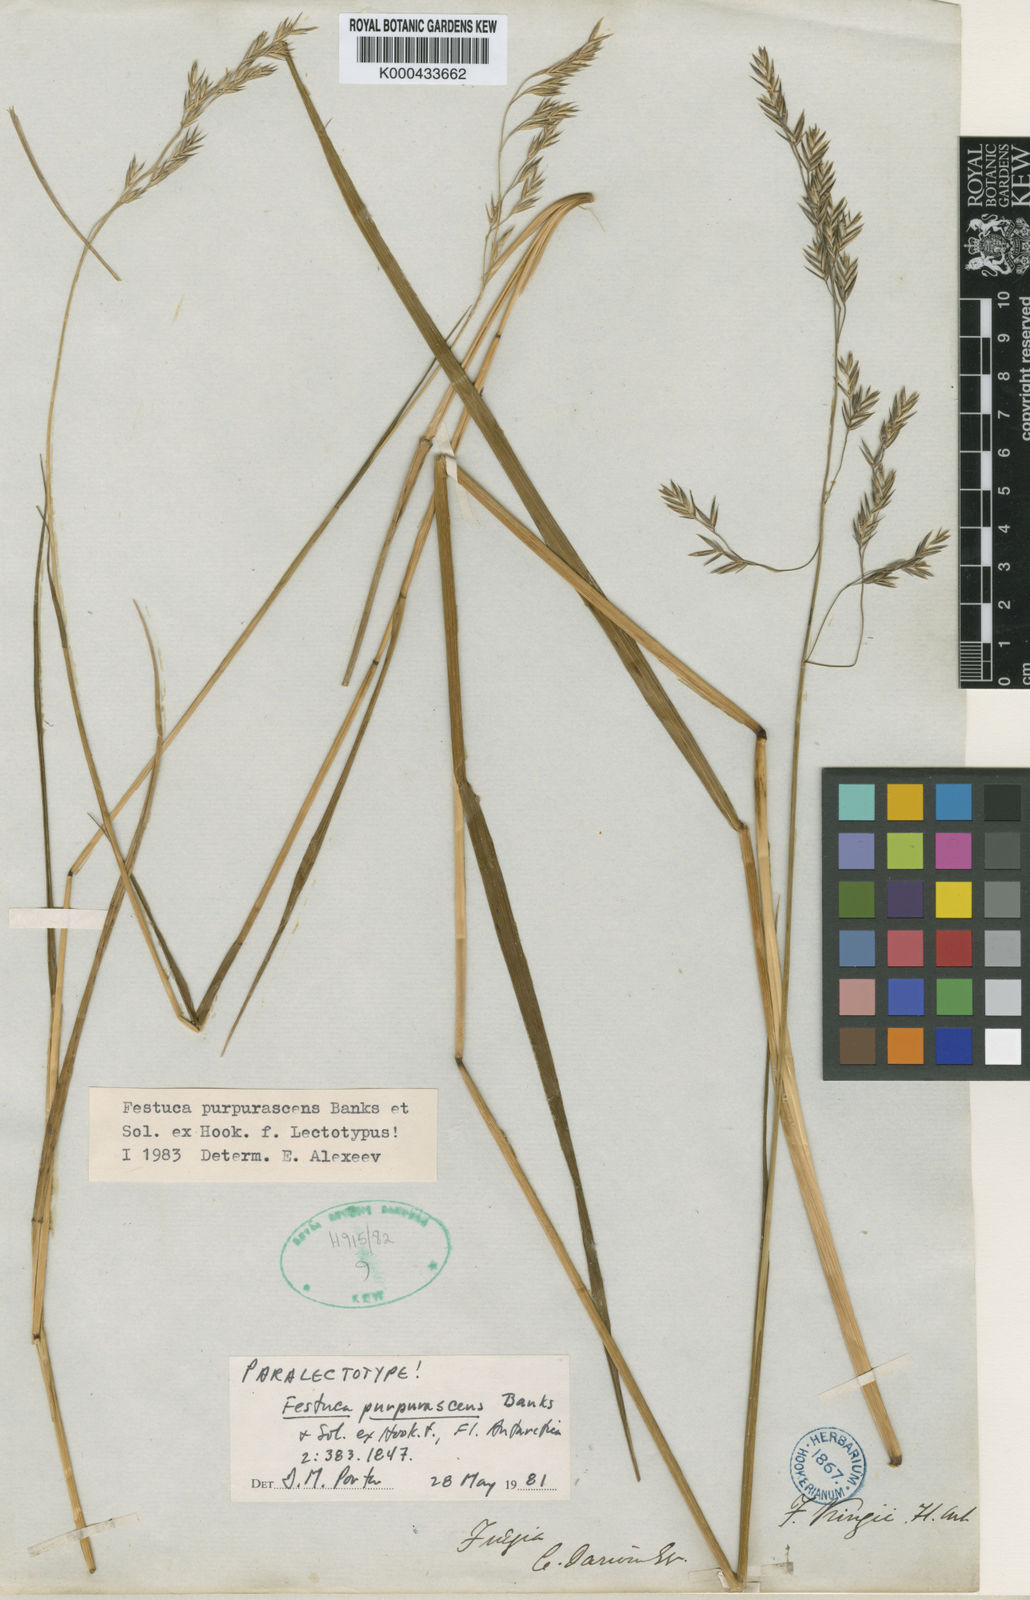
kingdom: Plantae
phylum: Tracheophyta
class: Liliopsida
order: Poales
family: Poaceae
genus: Festuca
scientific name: Festuca purpurascens
